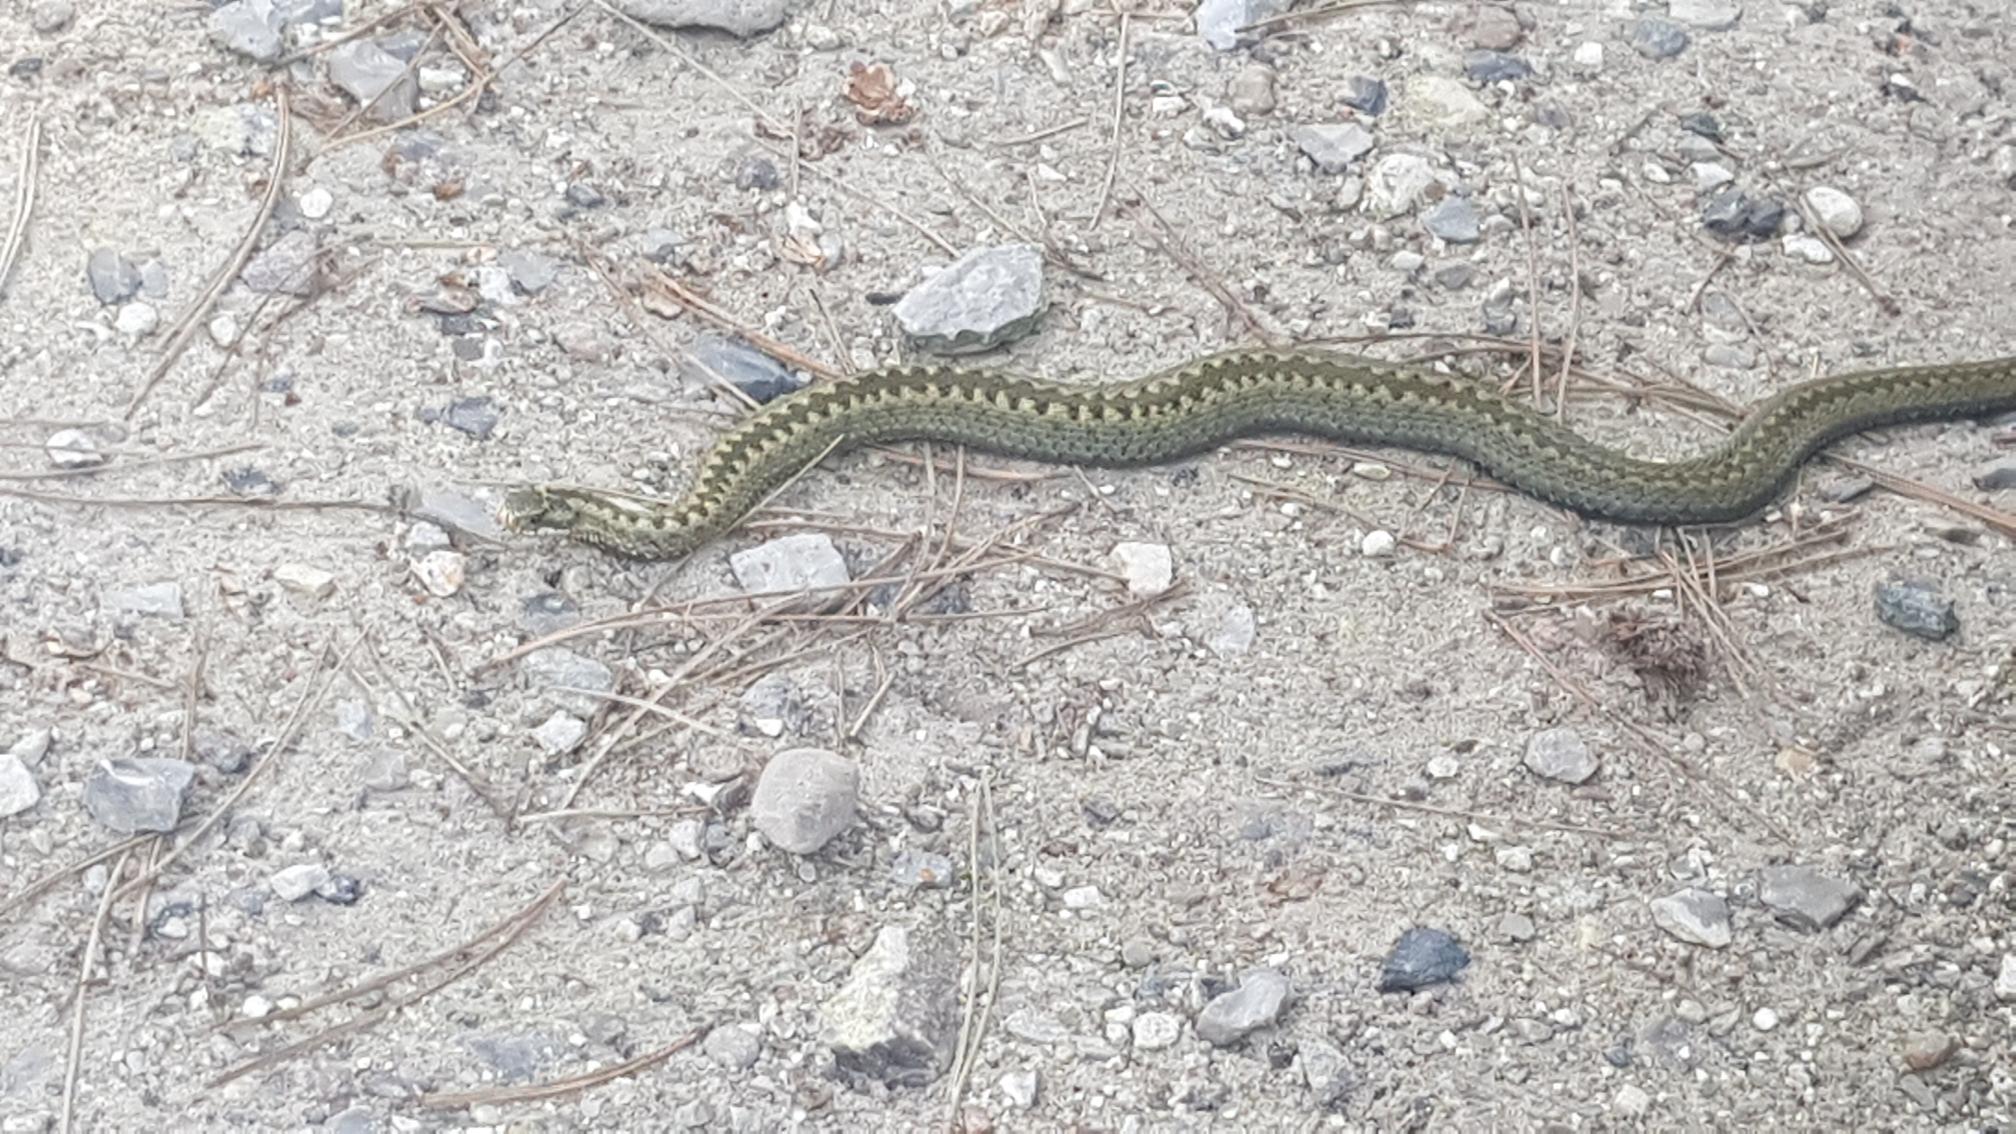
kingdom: Animalia
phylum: Chordata
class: Squamata
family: Viperidae
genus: Vipera
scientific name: Vipera berus
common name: Hugorm
